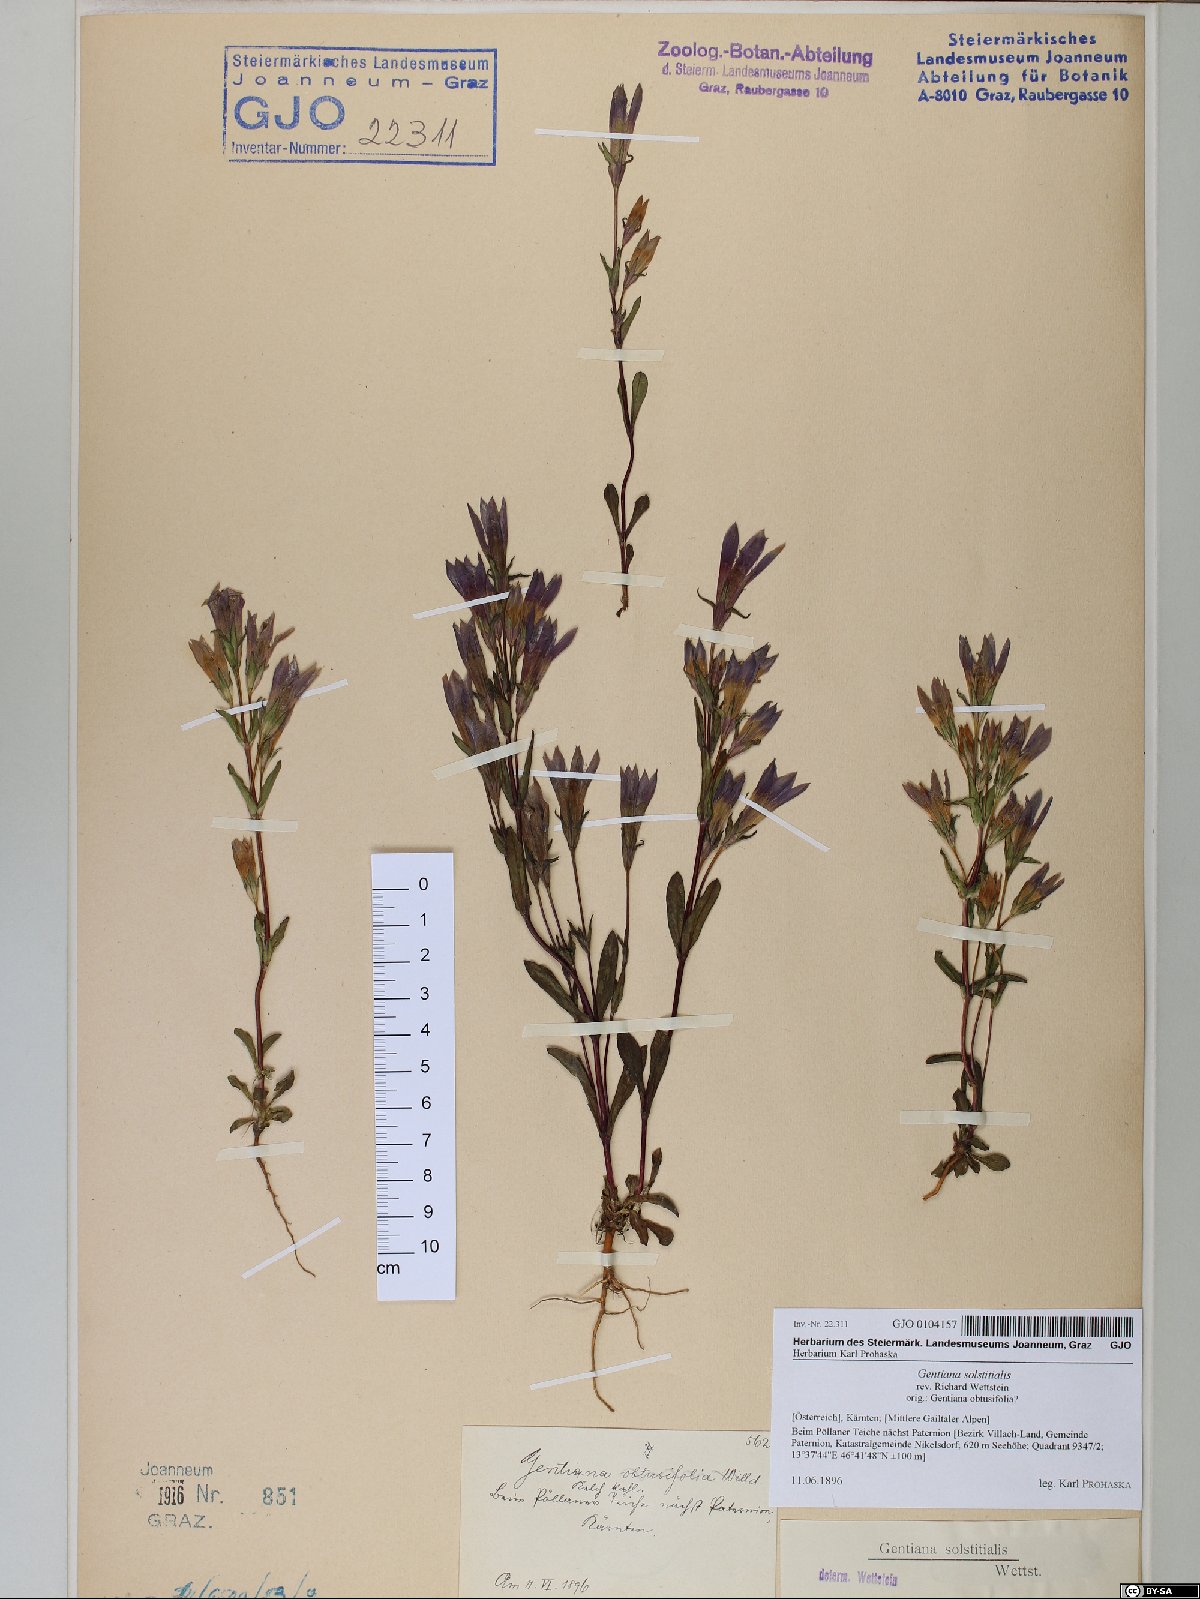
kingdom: Plantae
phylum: Tracheophyta
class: Magnoliopsida
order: Gentianales
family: Gentianaceae
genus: Gentianella
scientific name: Gentianella germanica
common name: Chiltern-gentian
